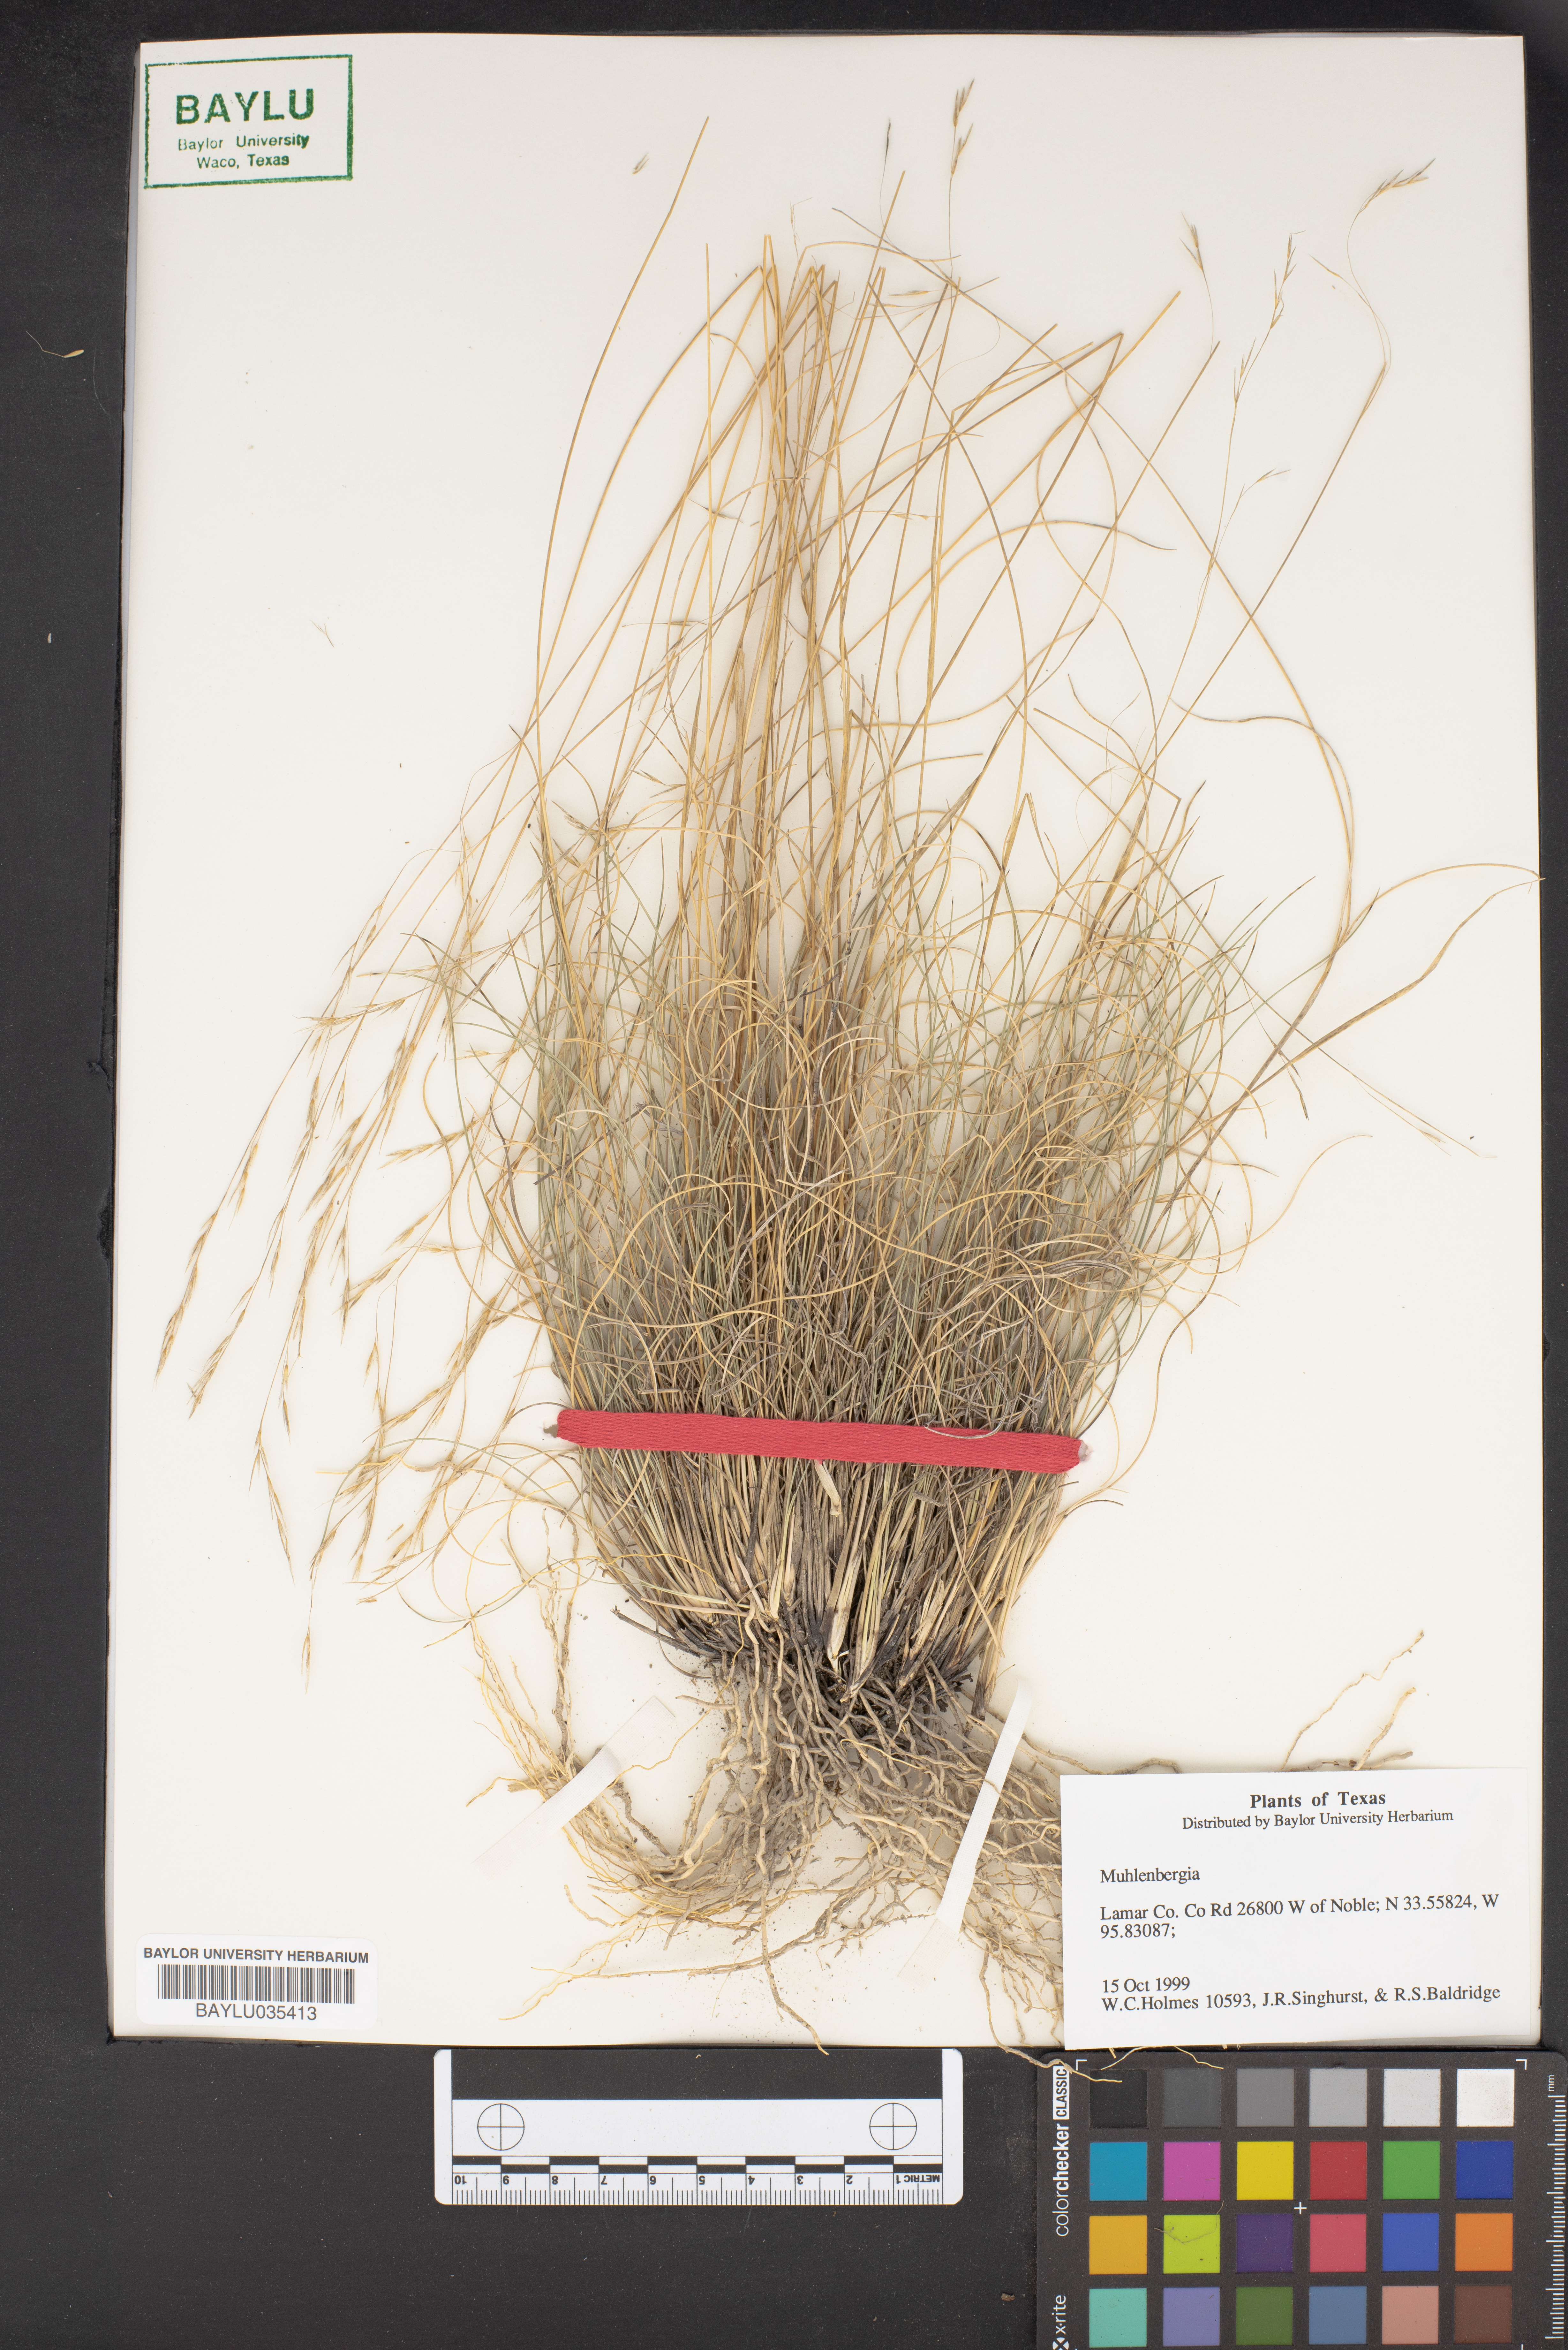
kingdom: Plantae
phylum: Tracheophyta
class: Liliopsida
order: Poales
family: Poaceae
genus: Muhlenbergia
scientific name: Muhlenbergia
